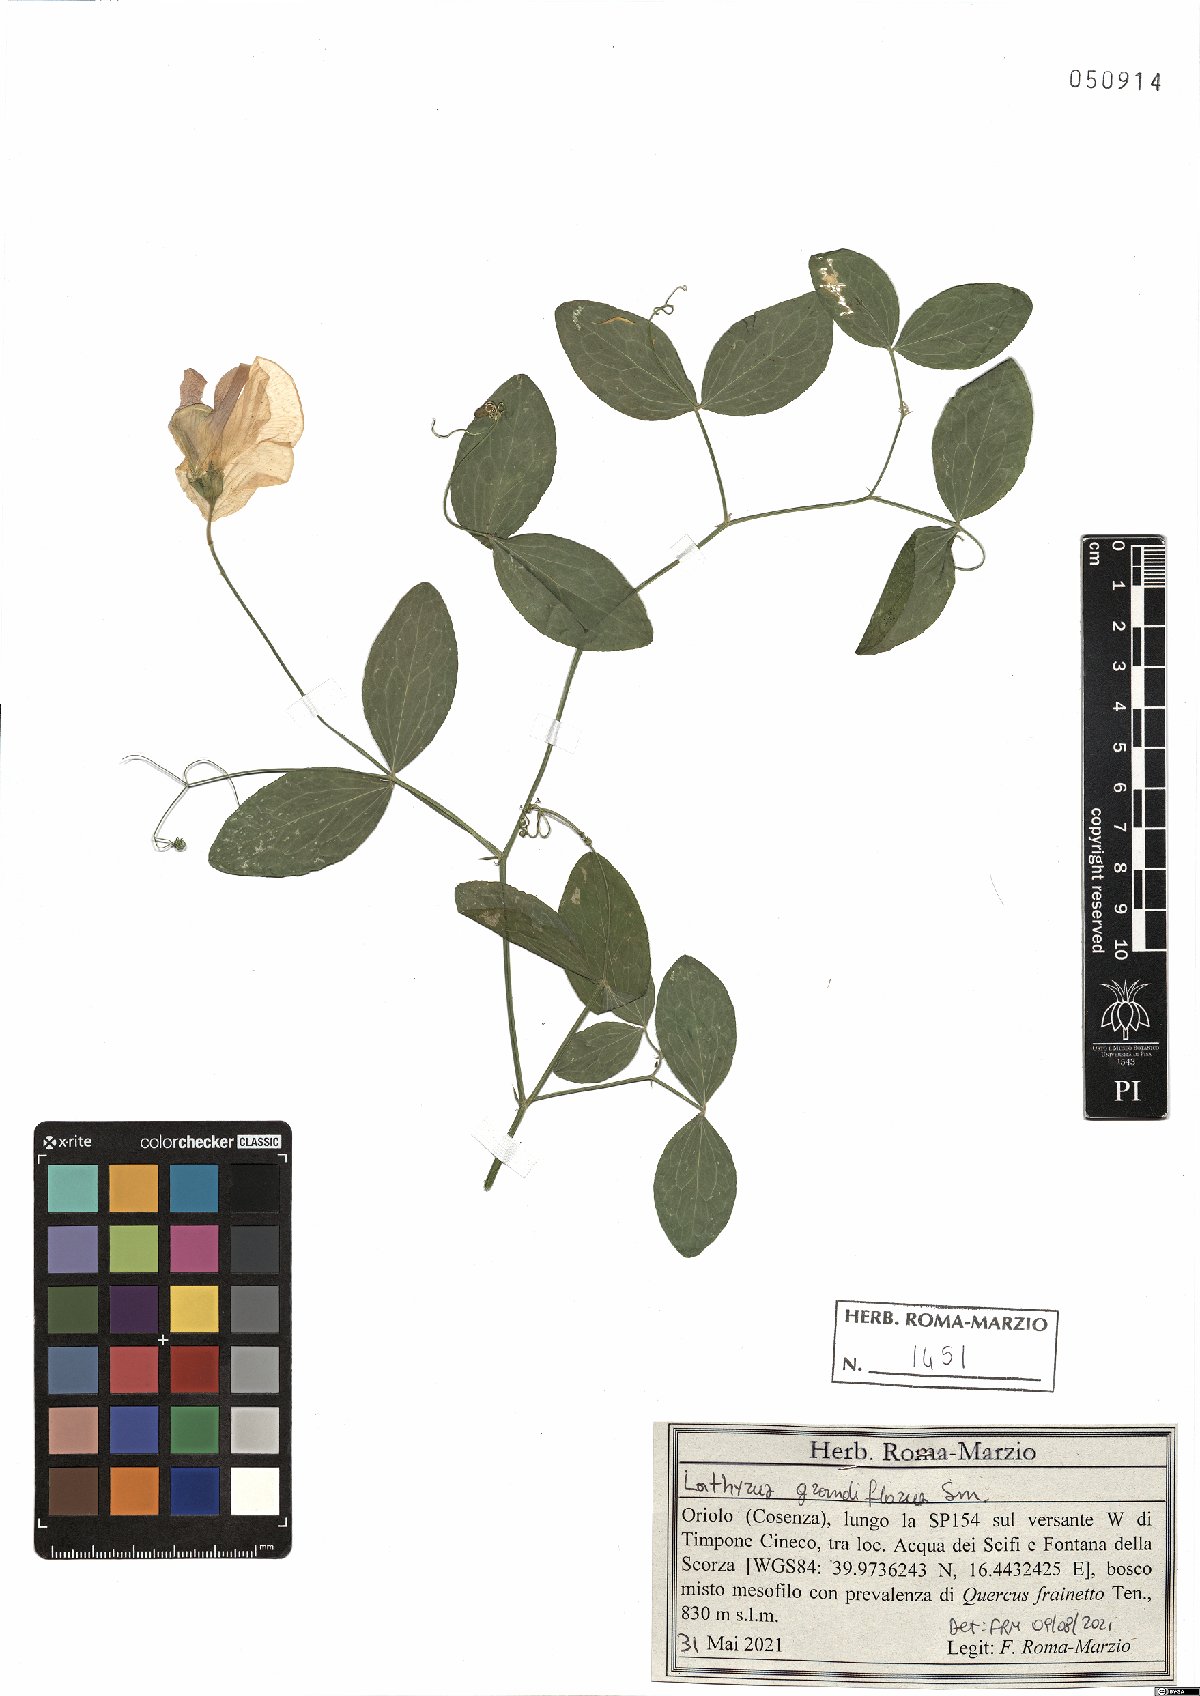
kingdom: Plantae
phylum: Tracheophyta
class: Magnoliopsida
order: Fabales
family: Fabaceae
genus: Lathyrus
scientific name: Lathyrus grandiflorus
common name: Two-flowered everlasting-pea
